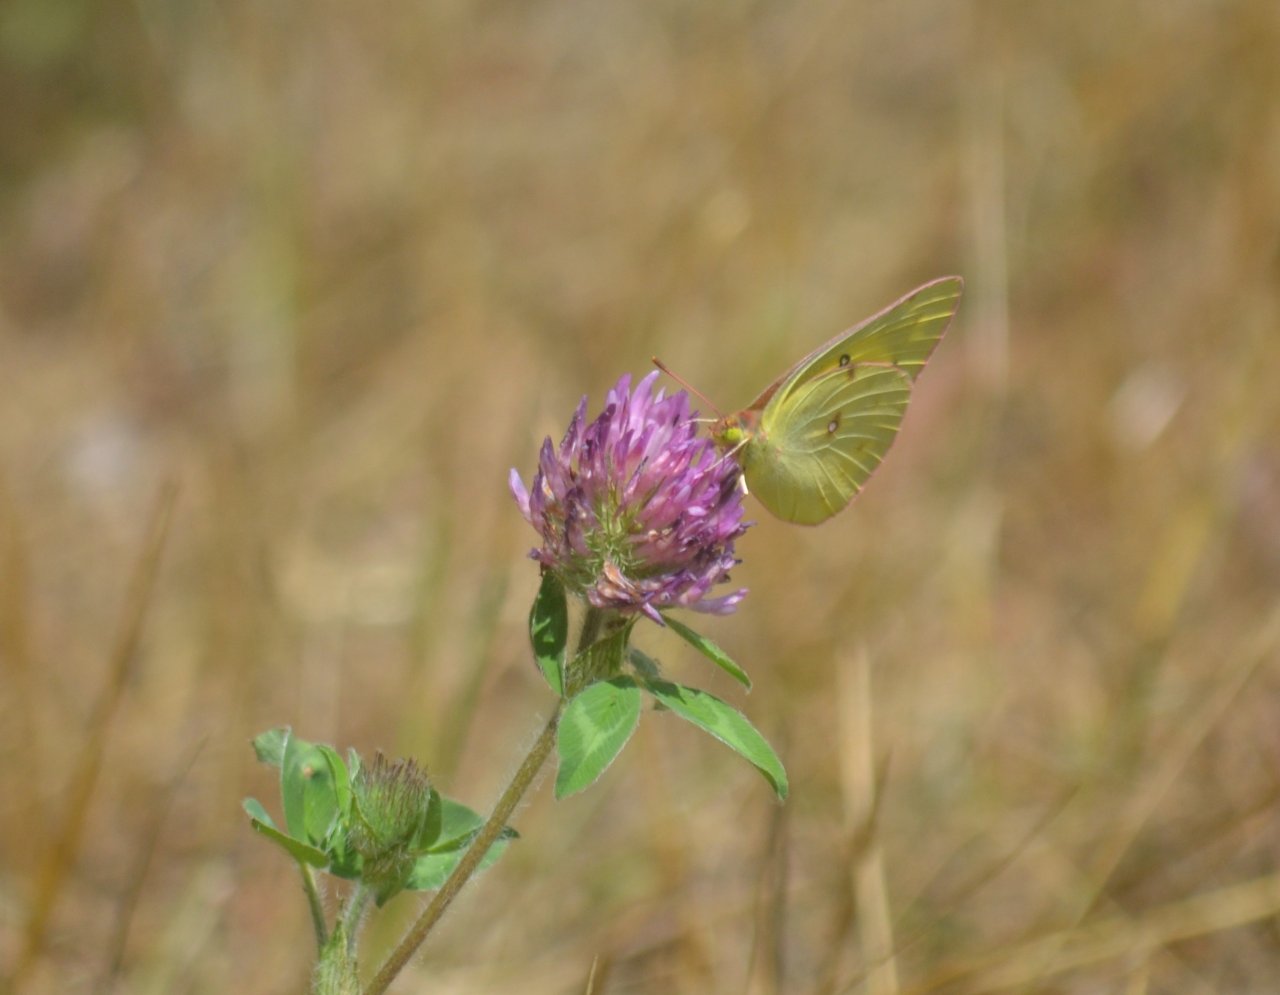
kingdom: Animalia
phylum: Arthropoda
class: Insecta
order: Lepidoptera
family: Pieridae
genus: Colias
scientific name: Colias philodice
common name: Clouded Sulphur
